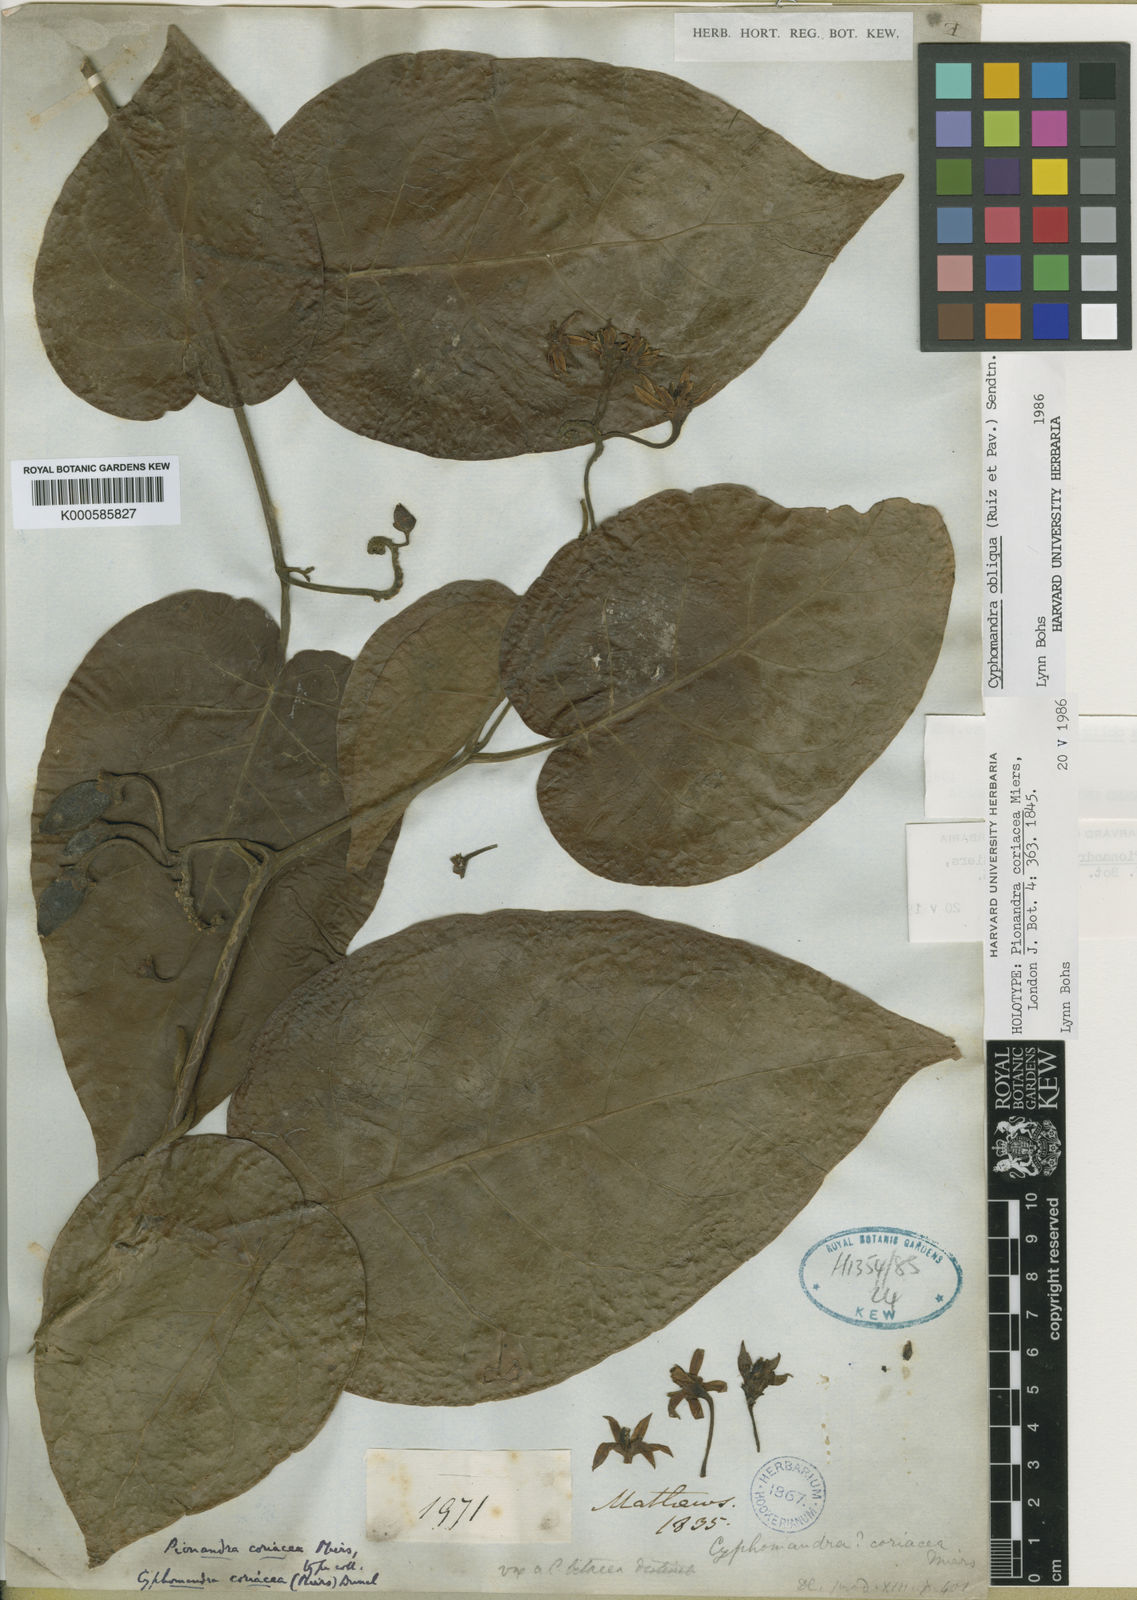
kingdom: Plantae
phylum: Tracheophyta
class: Magnoliopsida
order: Solanales
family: Solanaceae
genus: Solanum
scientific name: Solanum obliquum
